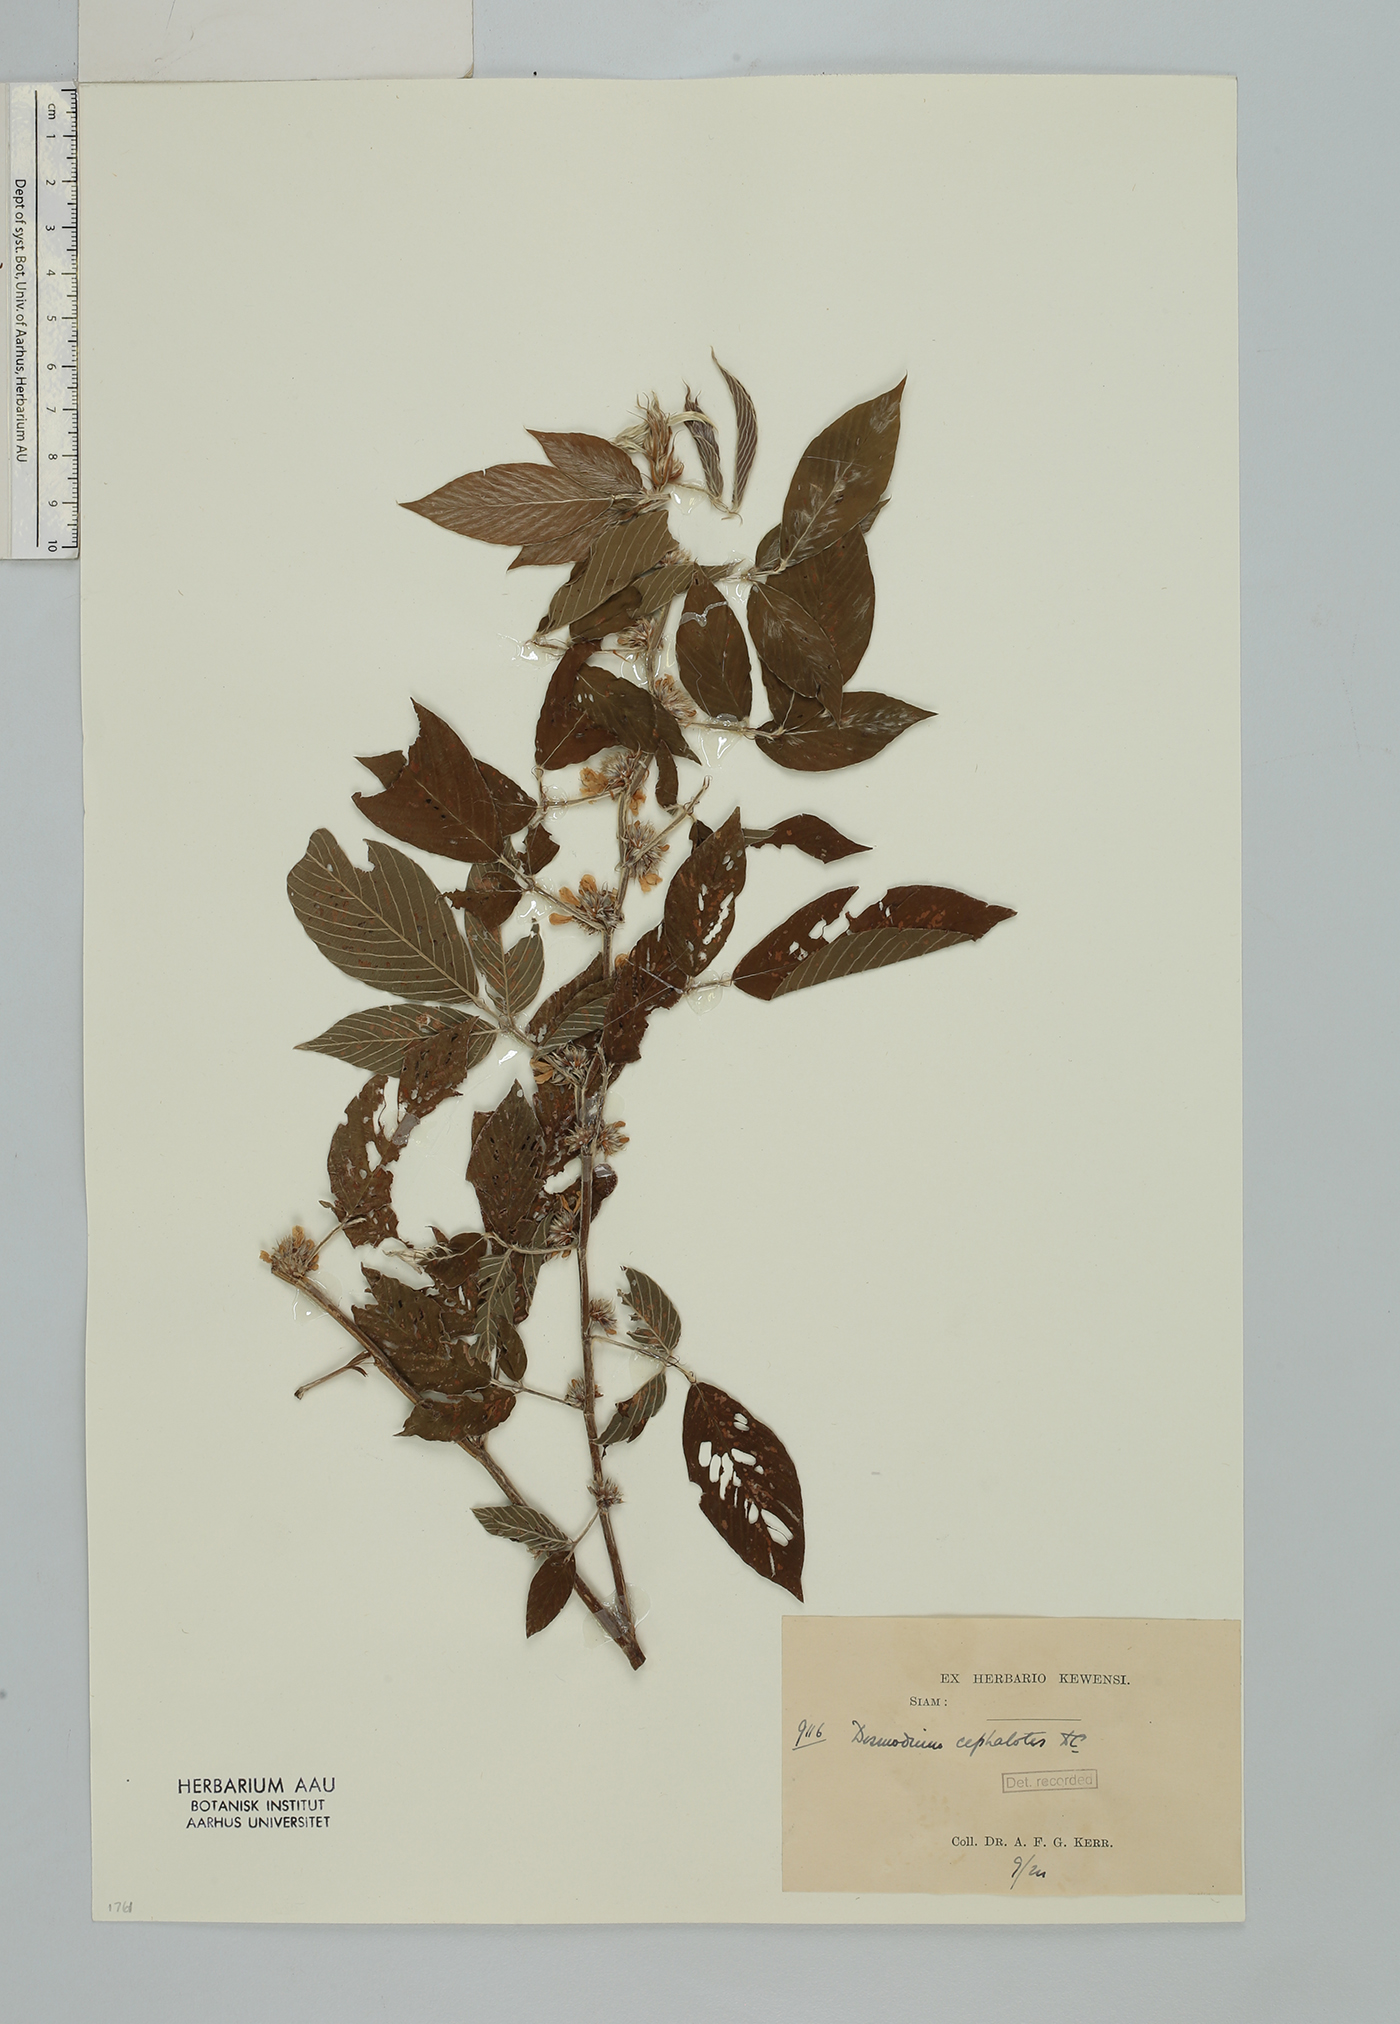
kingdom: Plantae
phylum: Tracheophyta
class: Magnoliopsida
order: Fabales
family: Fabaceae
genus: Dendrolobium
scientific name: Dendrolobium triangulare
